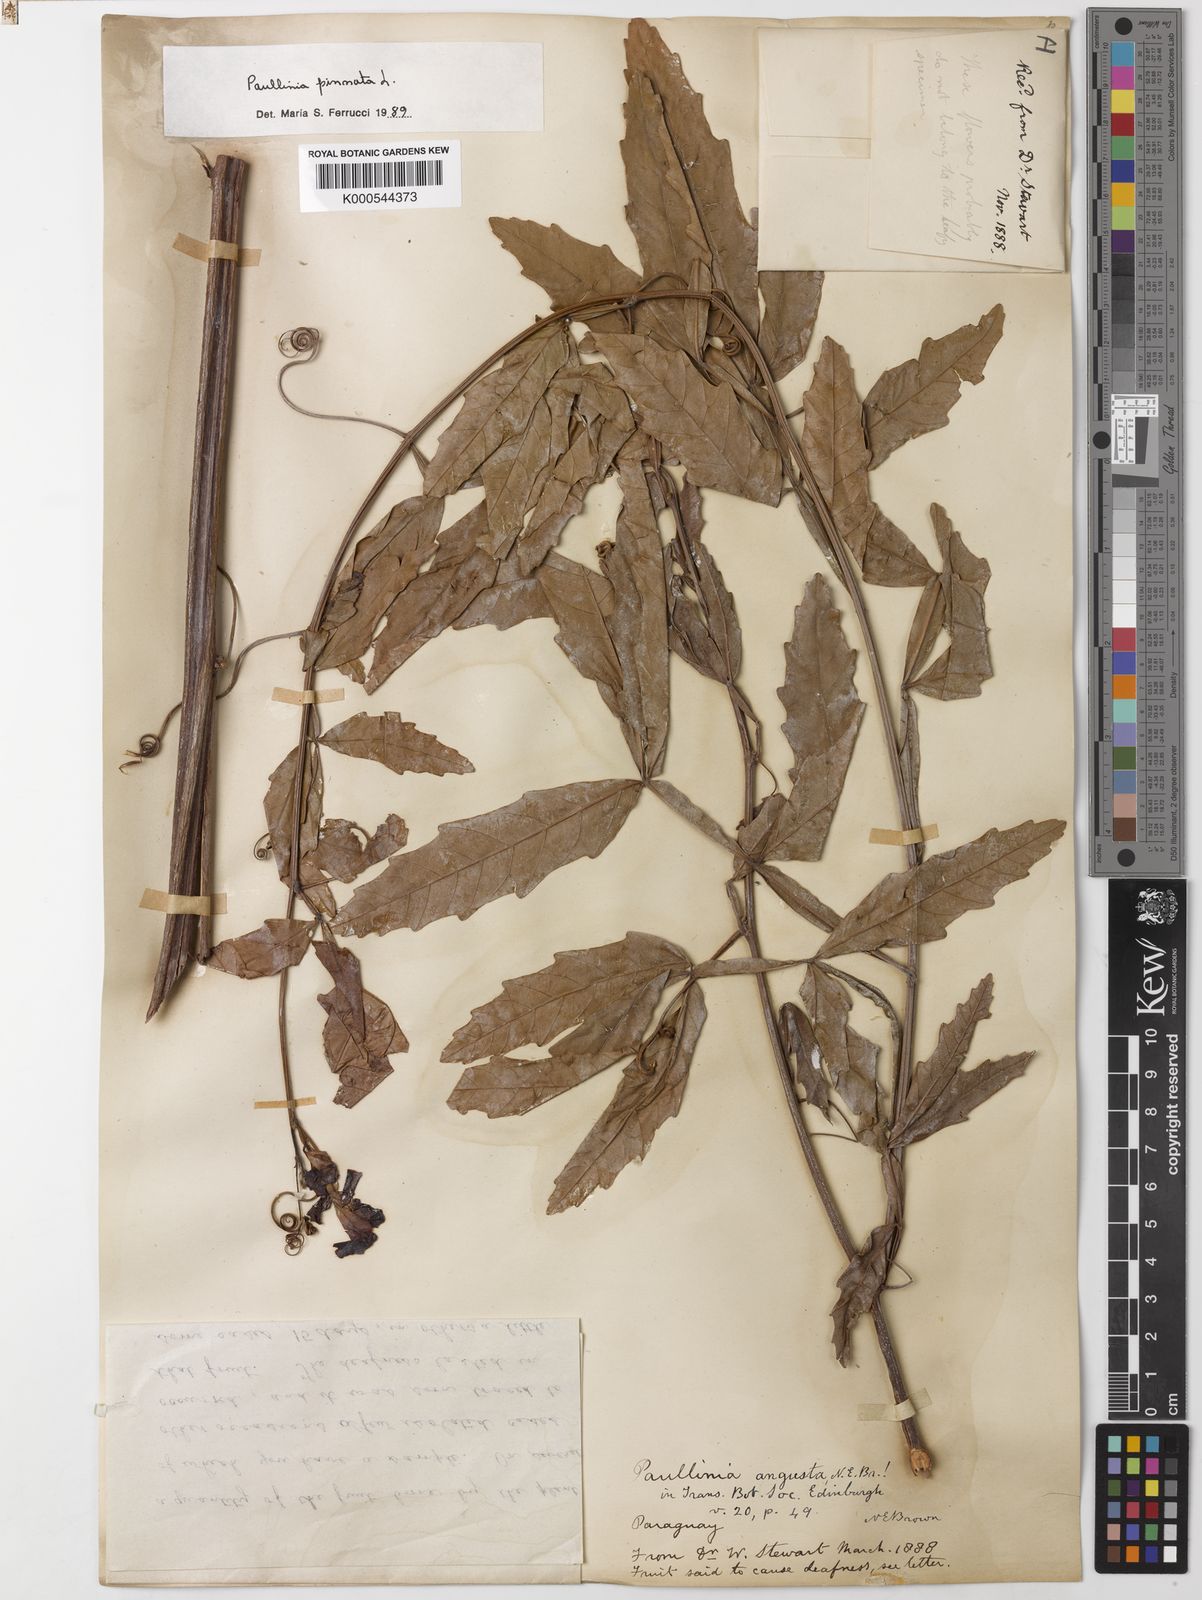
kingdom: Plantae
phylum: Tracheophyta
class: Magnoliopsida
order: Sapindales
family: Sapindaceae
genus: Paullinia
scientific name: Paullinia pinnata
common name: Barbasco
